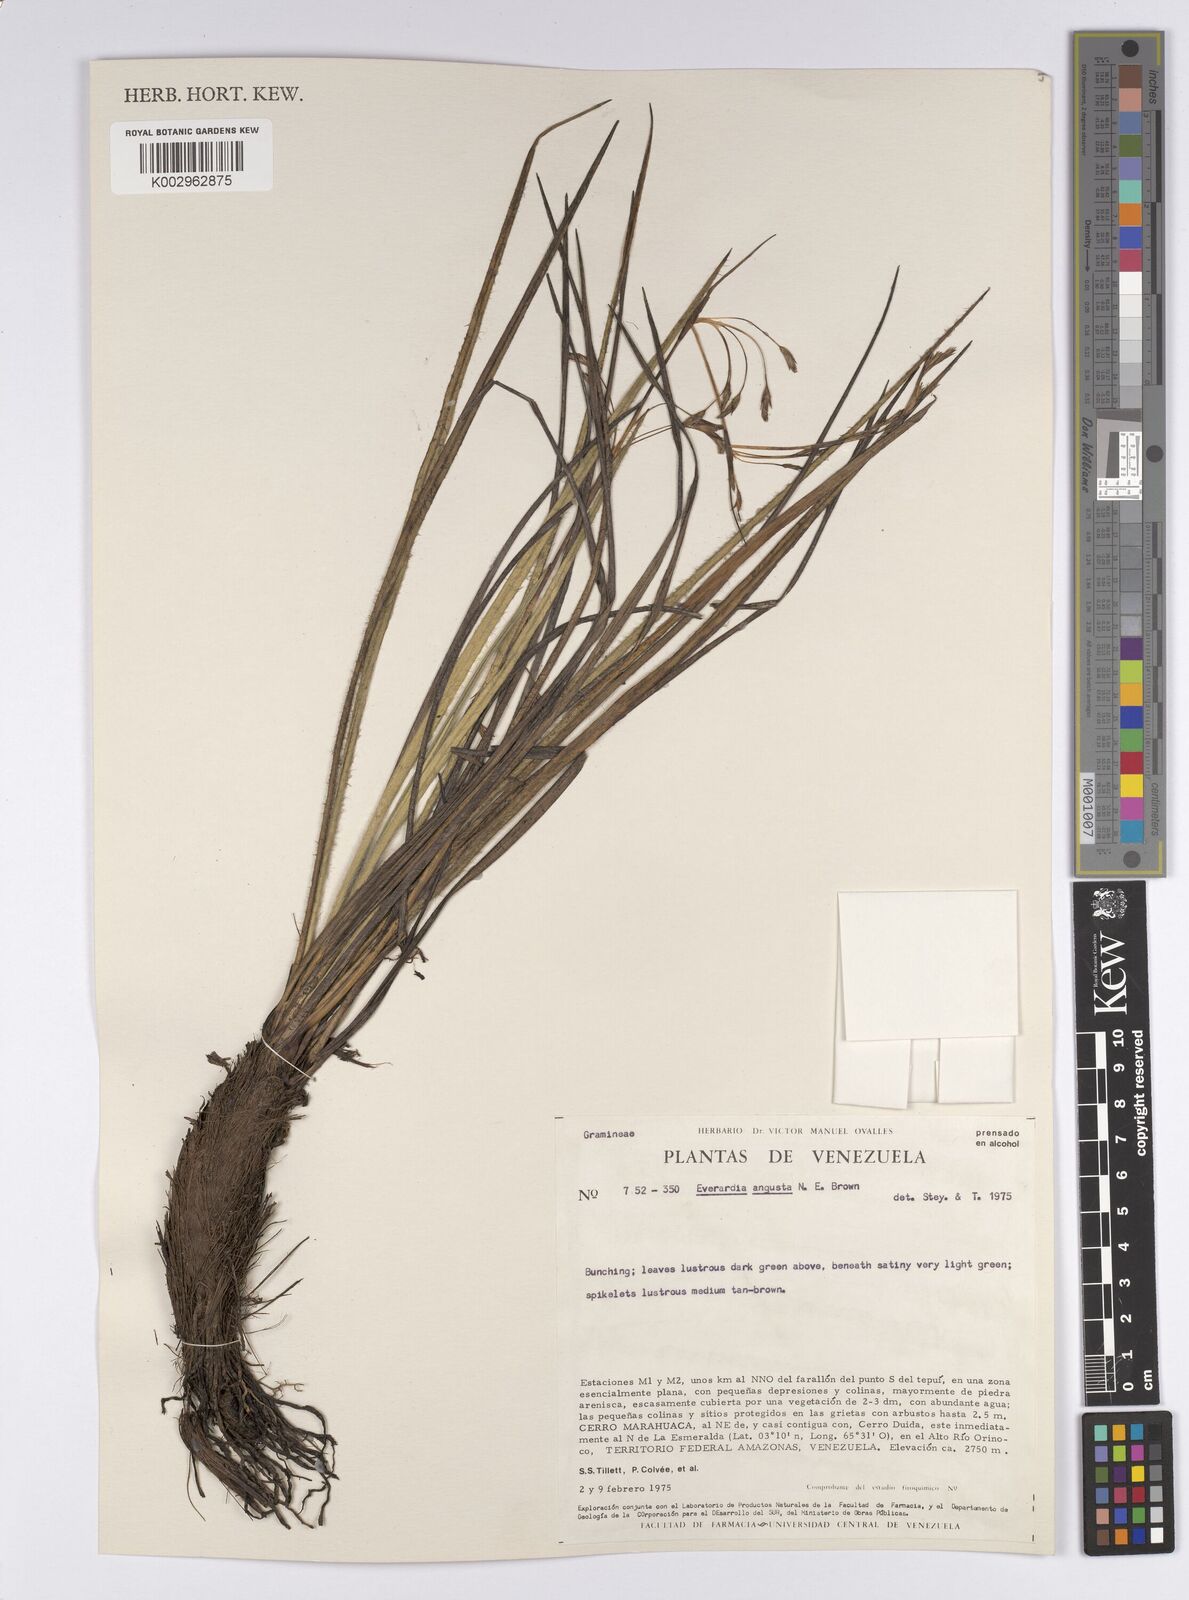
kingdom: Plantae
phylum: Tracheophyta
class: Liliopsida
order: Poales
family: Cyperaceae
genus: Cephalocarpus
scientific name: Cephalocarpus angustus
